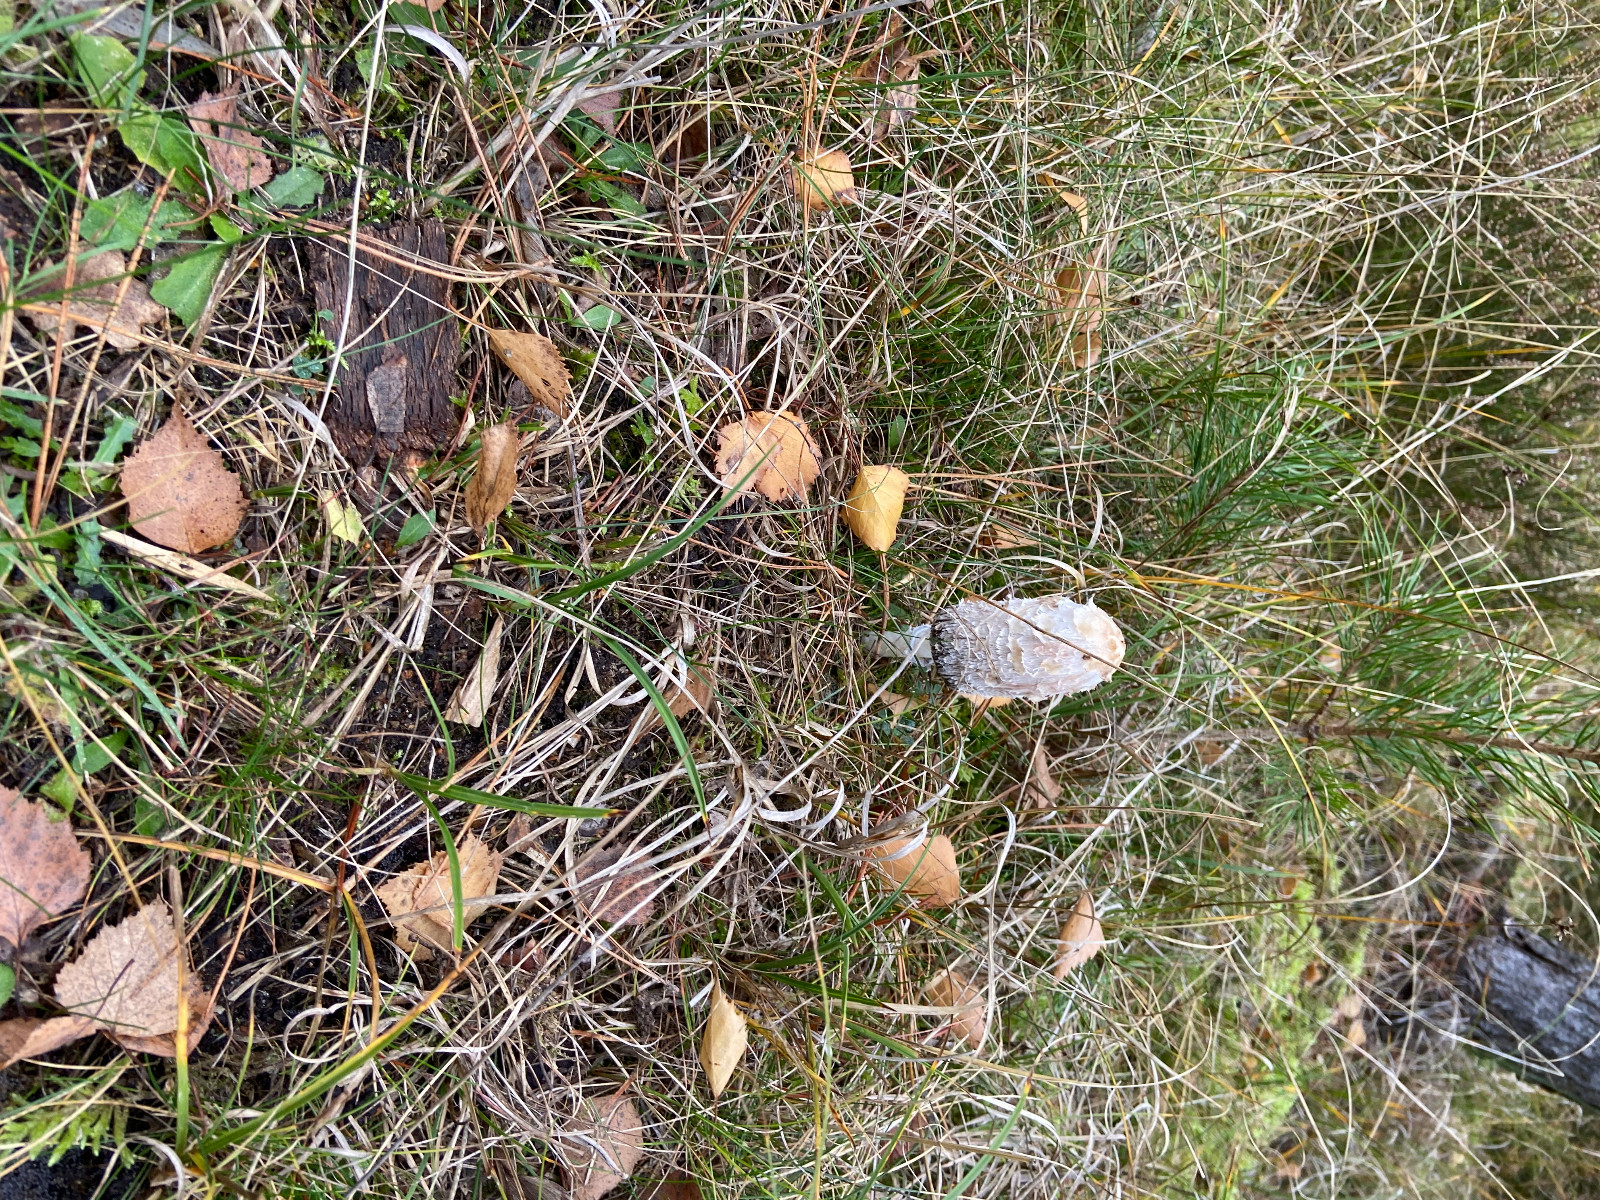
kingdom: Fungi
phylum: Basidiomycota
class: Agaricomycetes
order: Agaricales
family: Agaricaceae
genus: Coprinus
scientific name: Coprinus comatus
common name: stor parykhat
